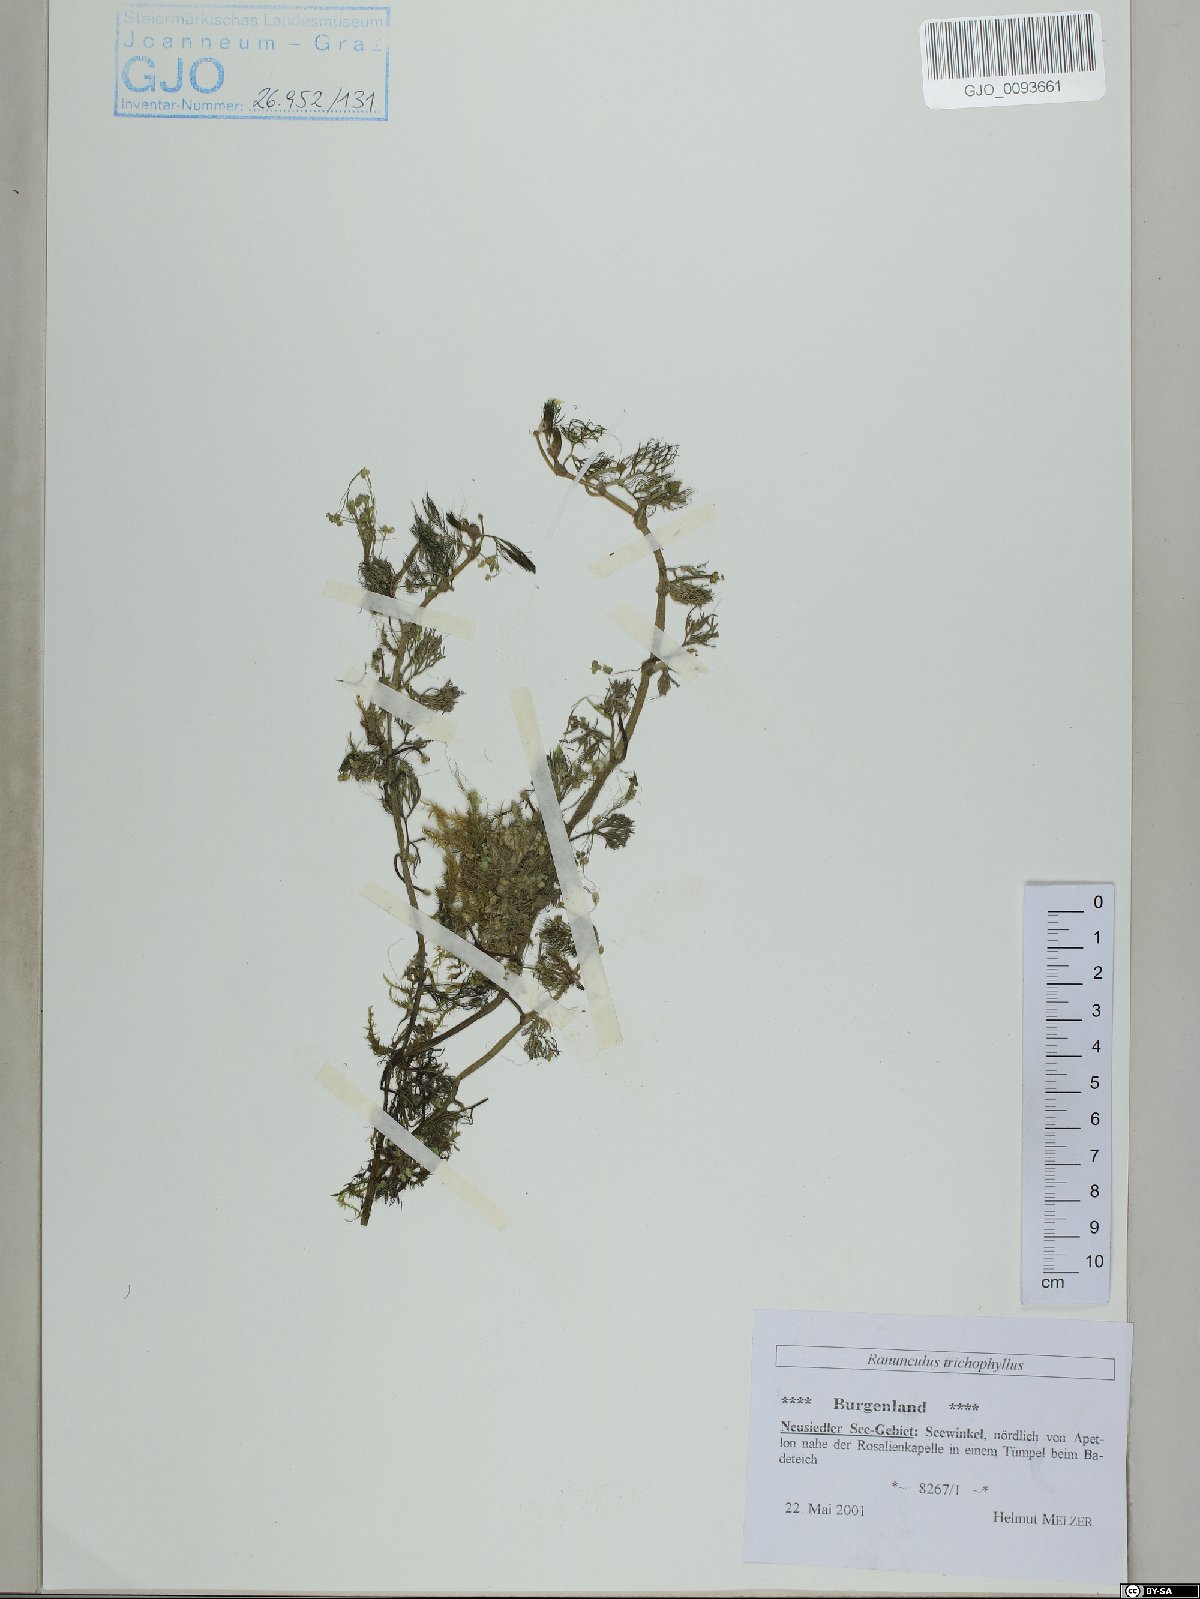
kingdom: Plantae
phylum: Tracheophyta
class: Magnoliopsida
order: Ranunculales
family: Ranunculaceae
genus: Ranunculus
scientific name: Ranunculus trichophyllus
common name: Thread-leaved water-crowfoot
